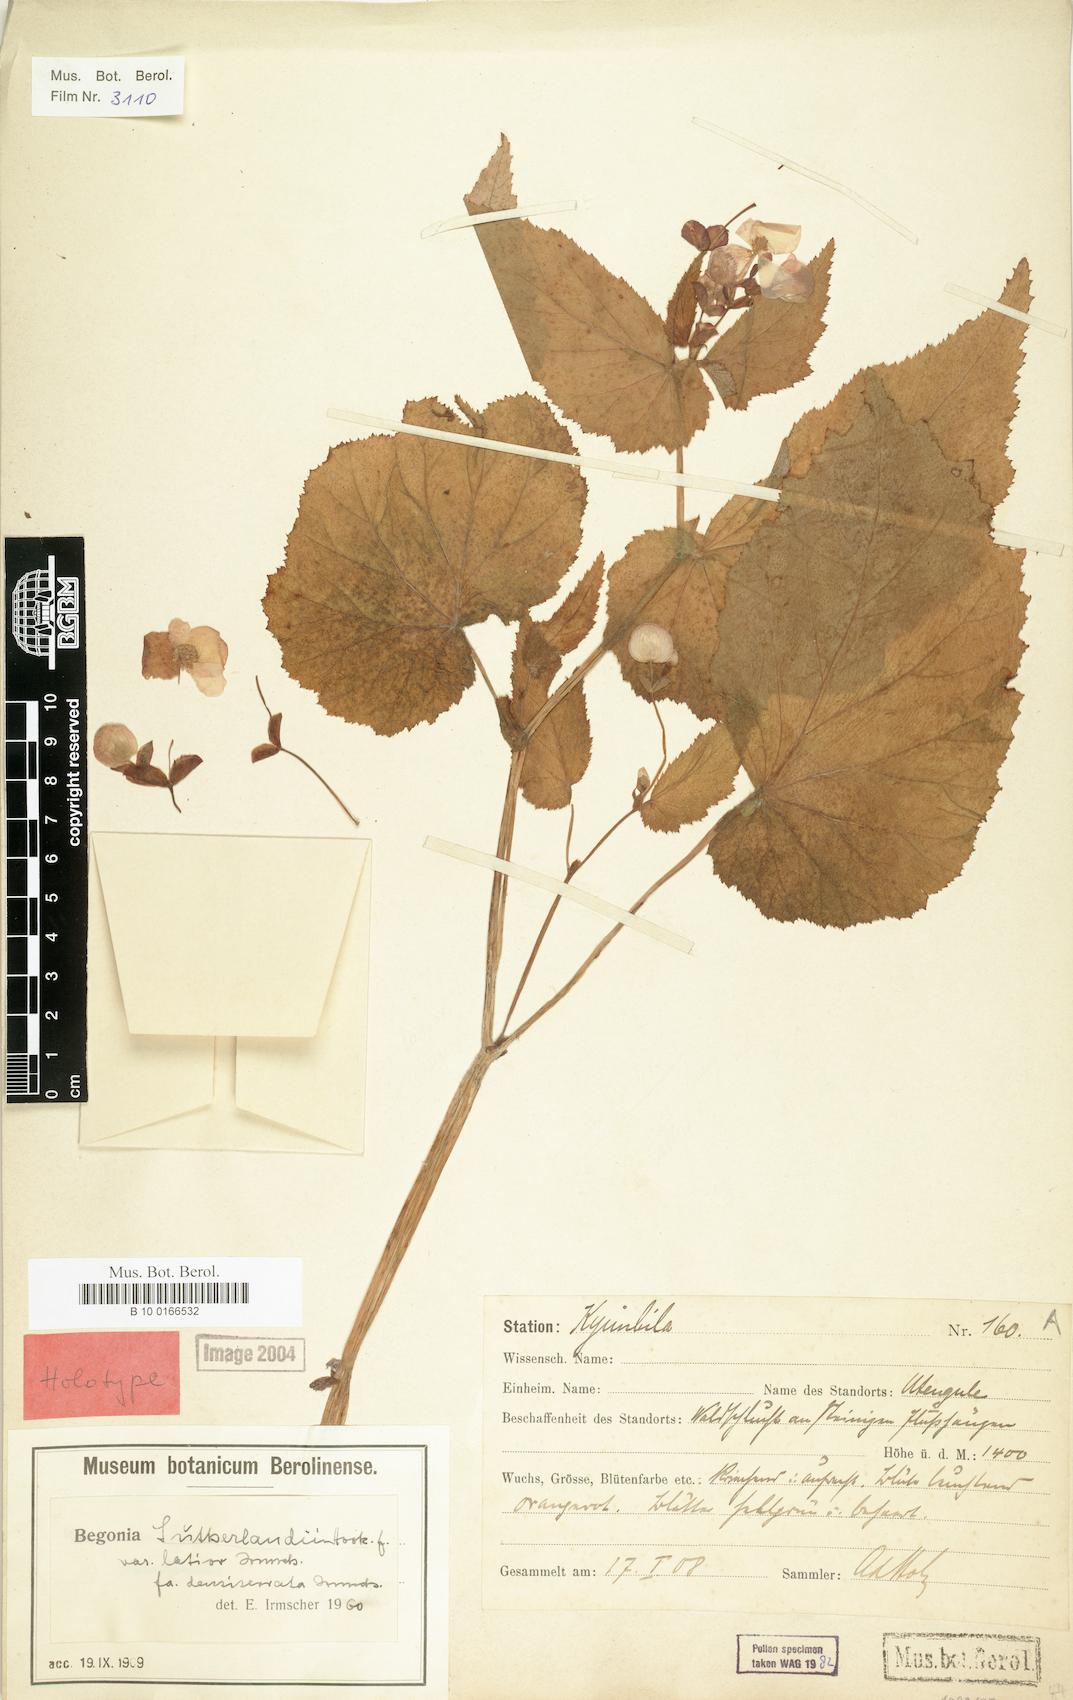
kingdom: Plantae
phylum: Tracheophyta
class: Magnoliopsida
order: Cucurbitales
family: Begoniaceae
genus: Begonia
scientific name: Begonia sutherlandii
